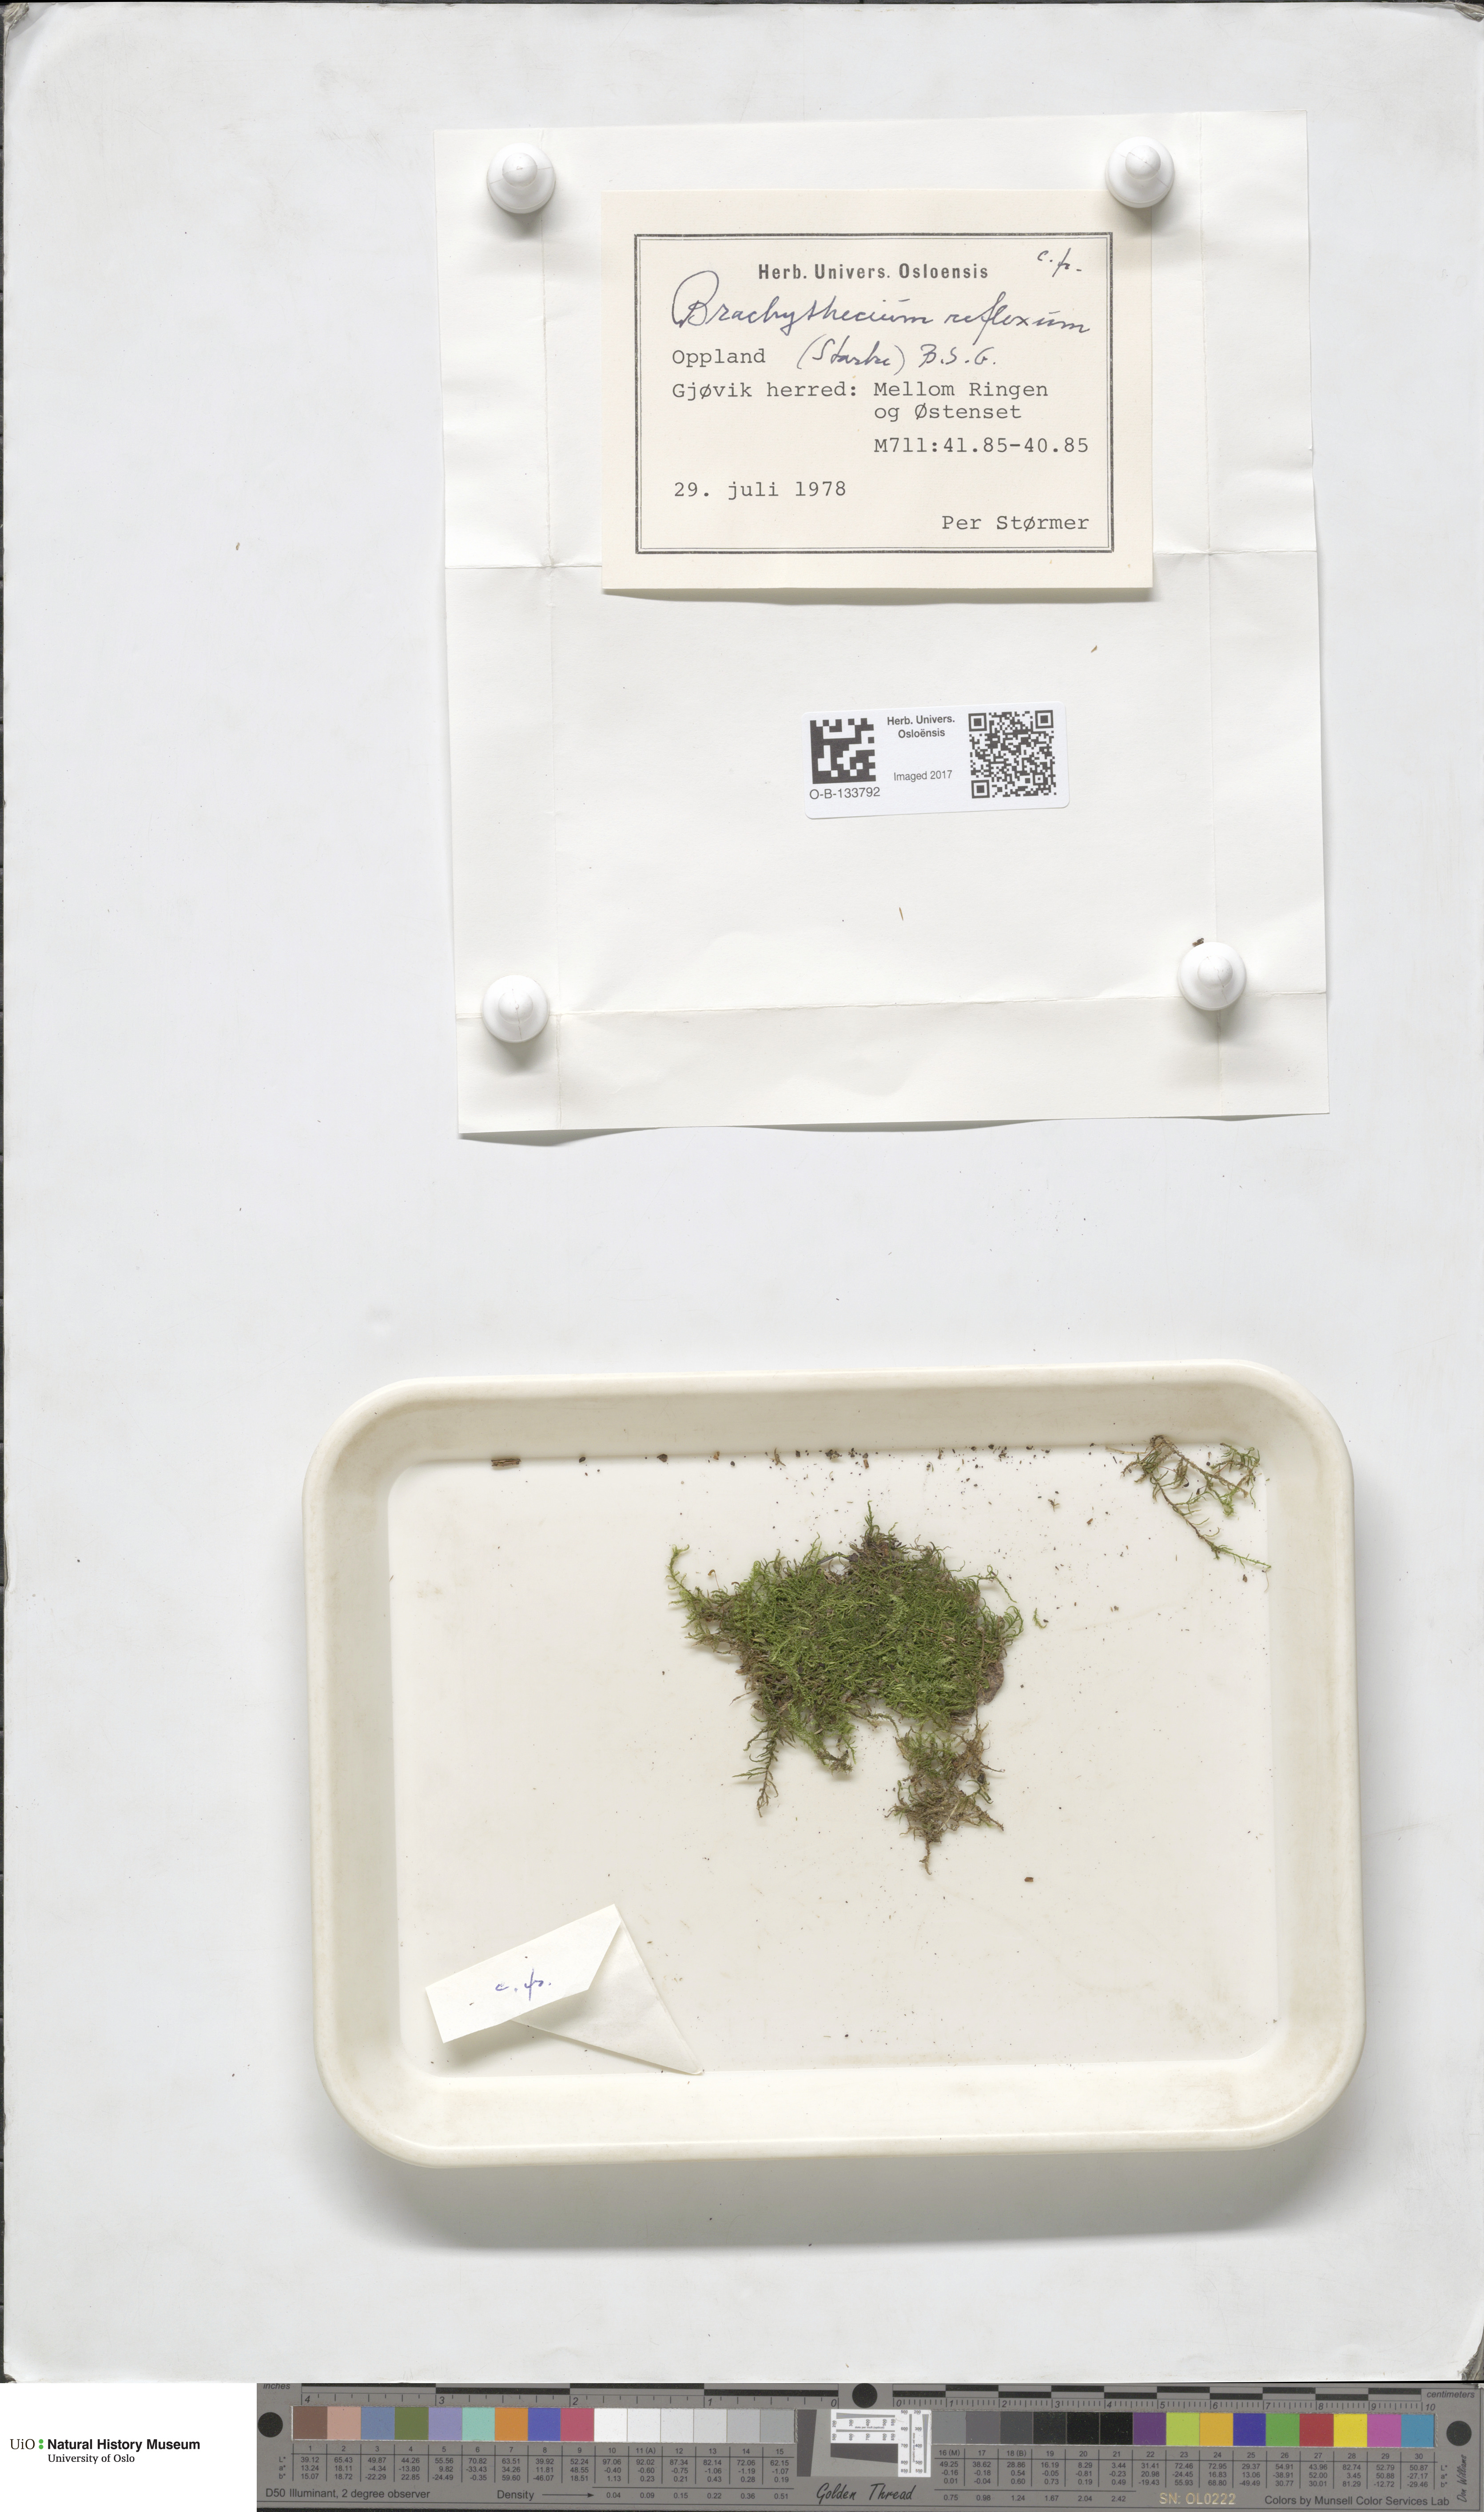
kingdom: Plantae
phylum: Bryophyta
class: Bryopsida
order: Hypnales
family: Brachytheciaceae
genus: Sciuro-hypnum
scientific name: Sciuro-hypnum reflexum
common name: Reflexed feather-moss
